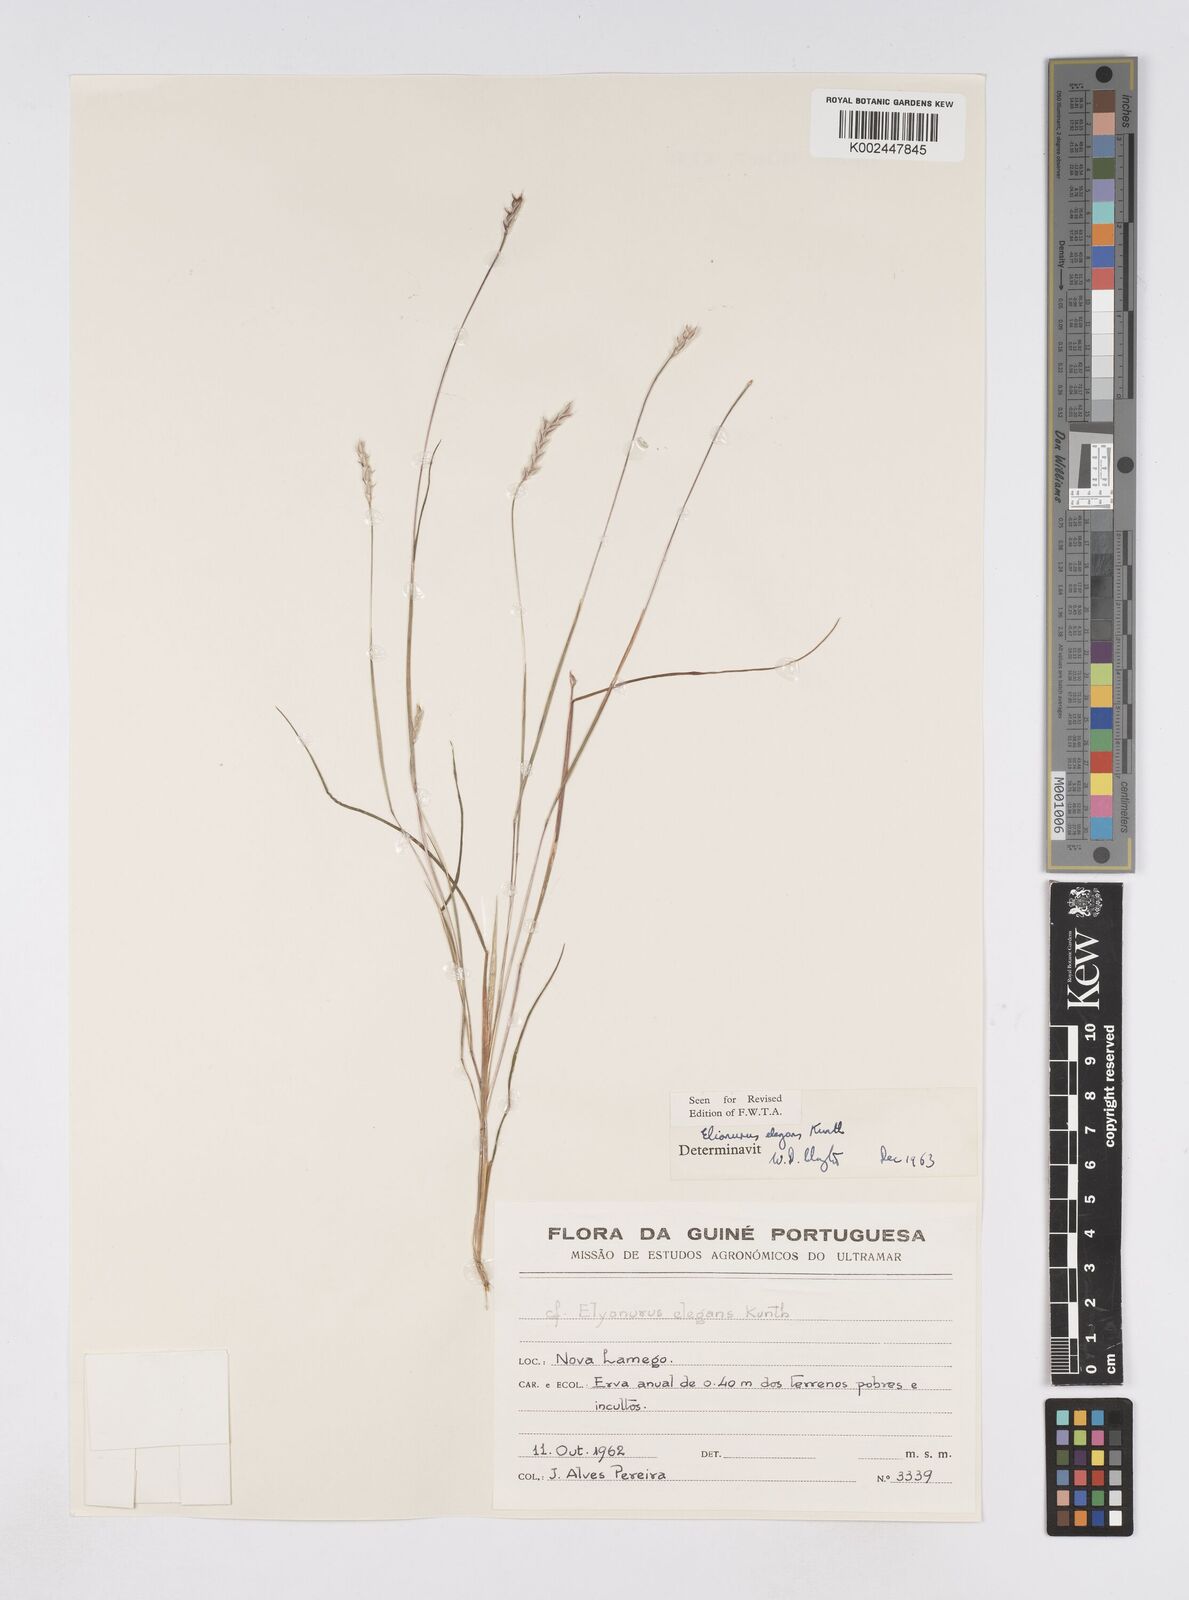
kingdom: Plantae
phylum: Tracheophyta
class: Liliopsida
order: Poales
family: Poaceae
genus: Elionurus
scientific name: Elionurus elegans
